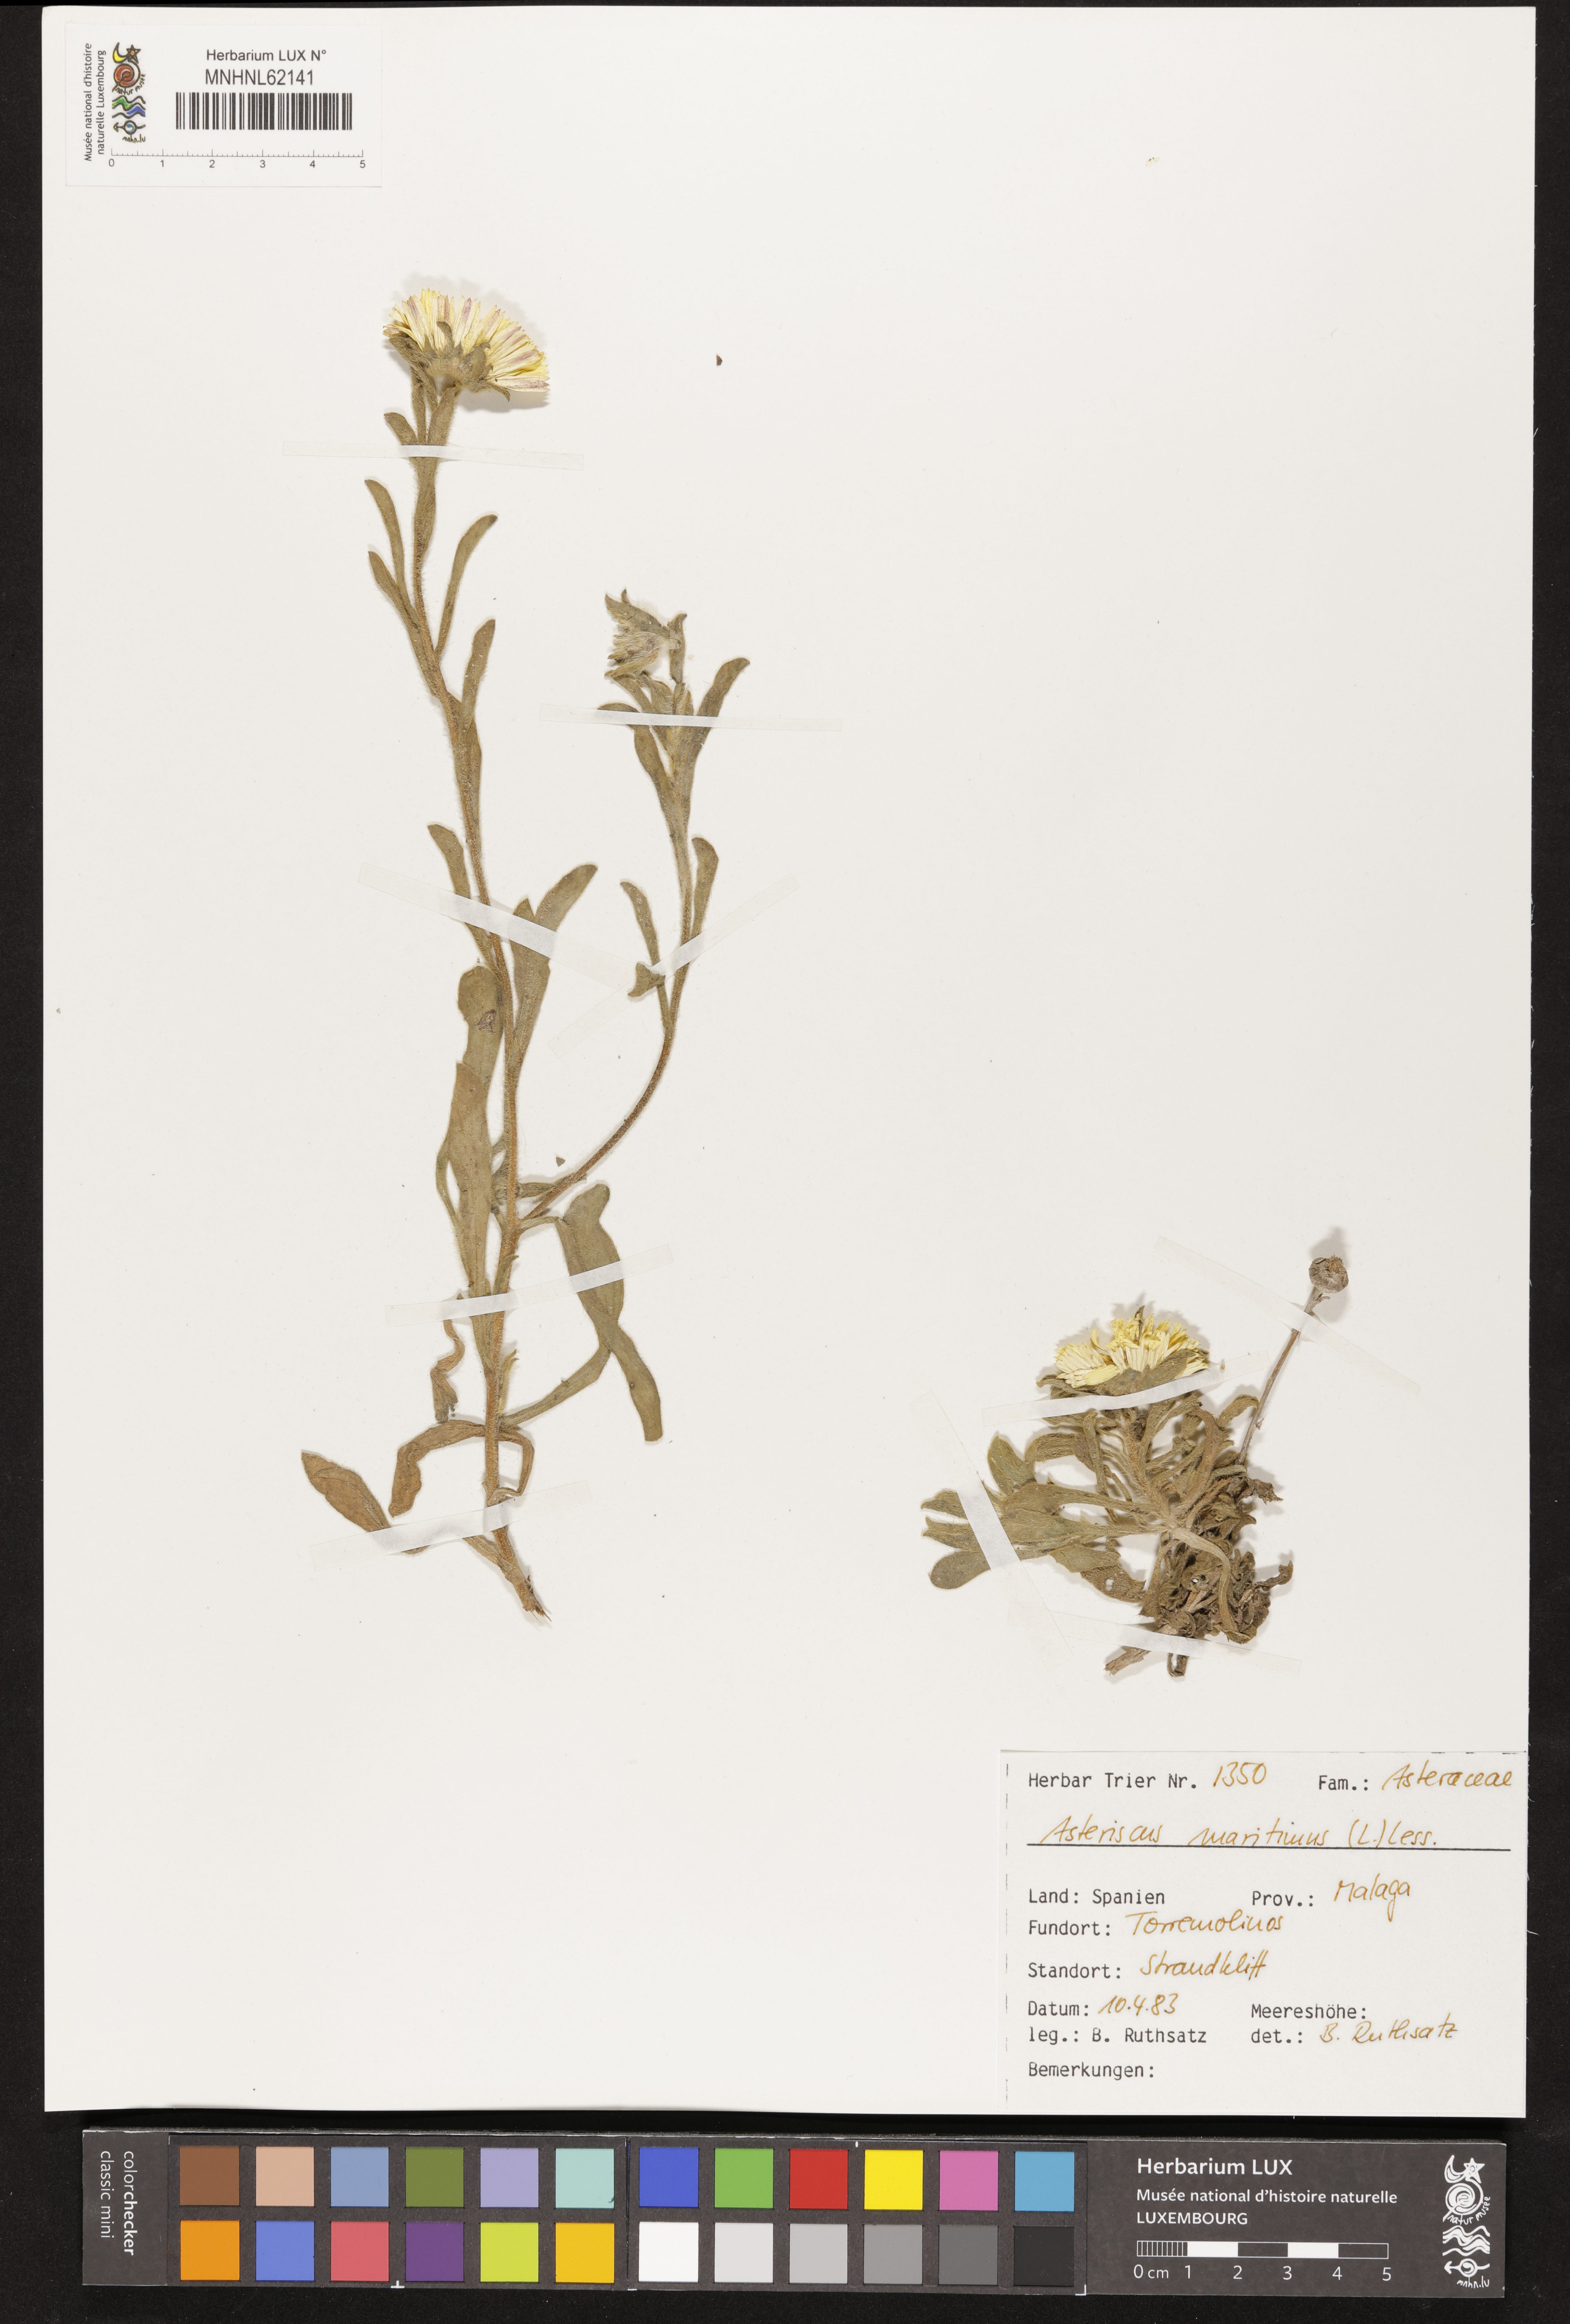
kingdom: Plantae
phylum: Tracheophyta
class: Magnoliopsida
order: Asterales
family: Asteraceae
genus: Pallenis
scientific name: Pallenis maritima
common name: Golden coin daisy
